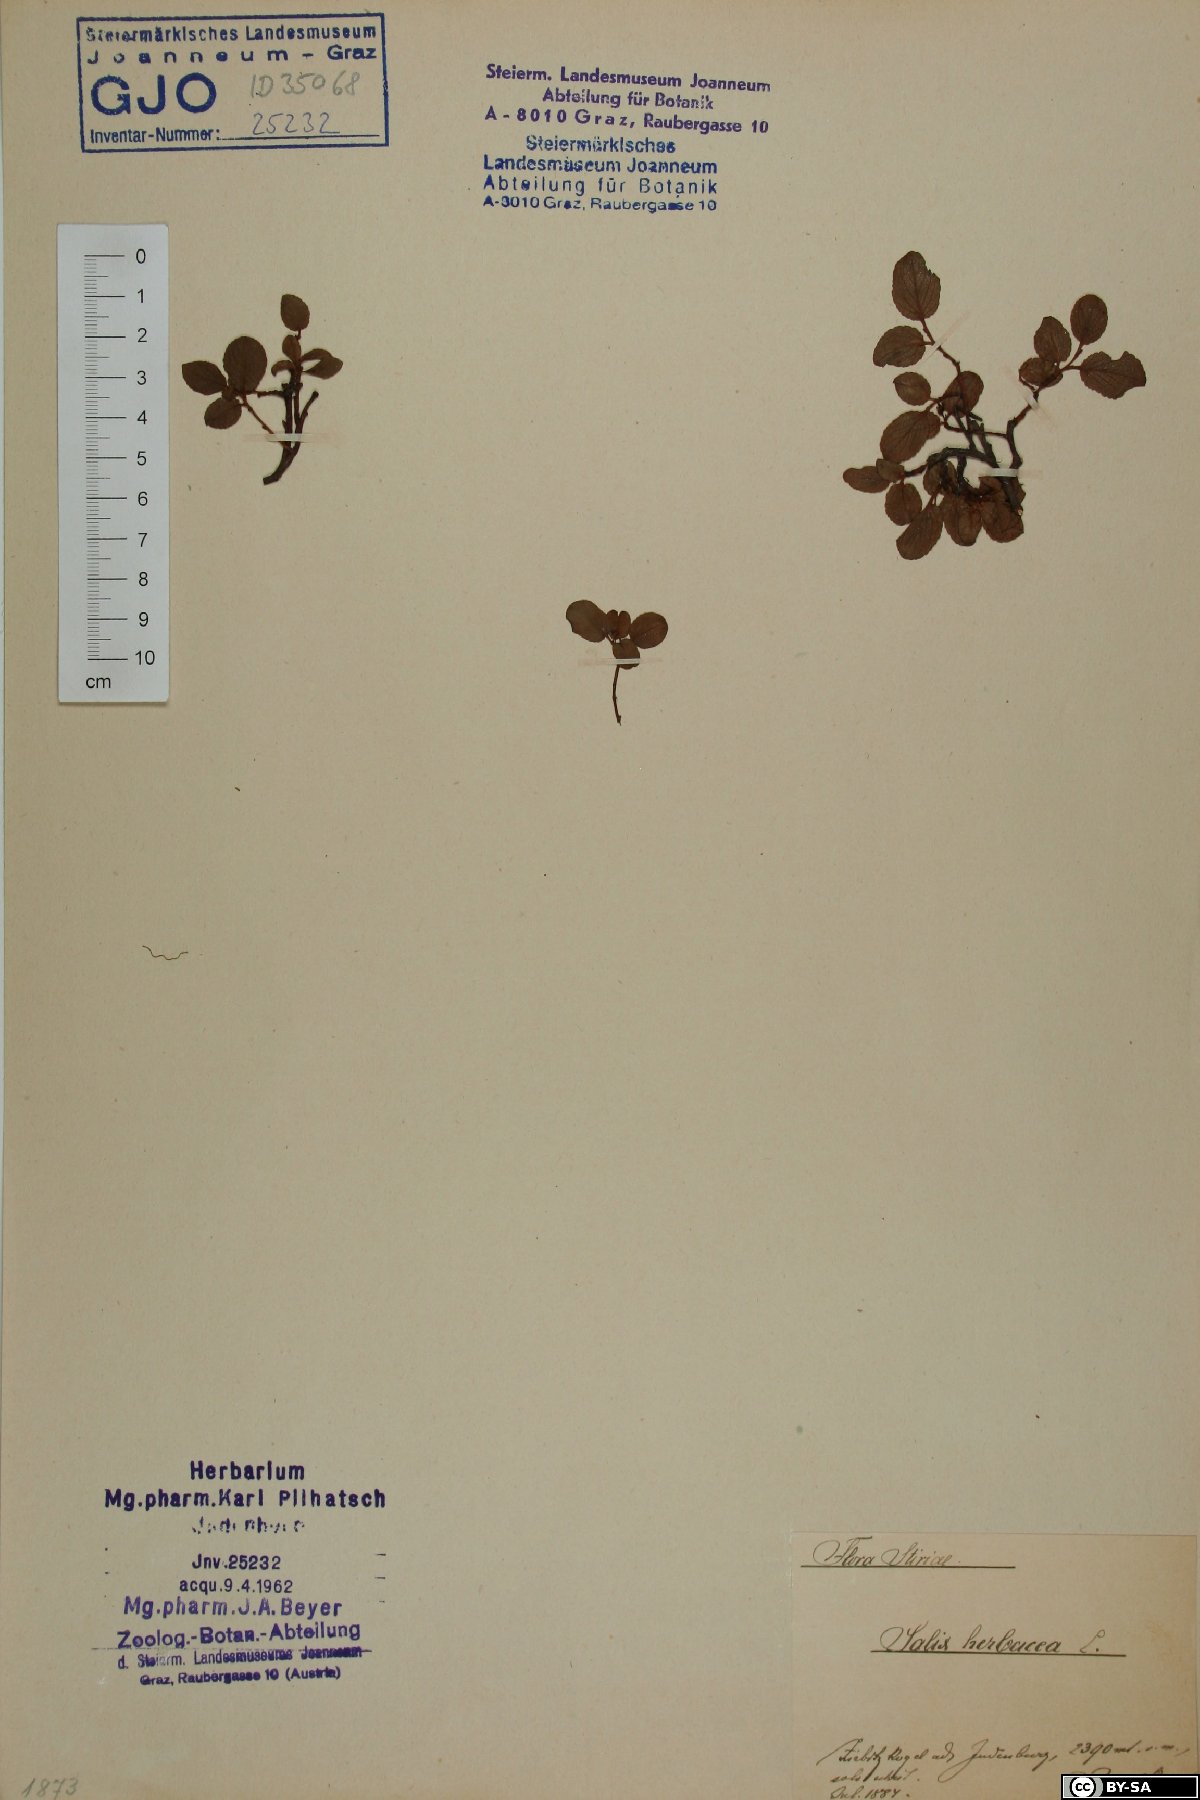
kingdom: Plantae
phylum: Tracheophyta
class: Magnoliopsida
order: Malpighiales
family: Salicaceae
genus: Salix
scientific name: Salix herbacea
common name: Dwarf willow
